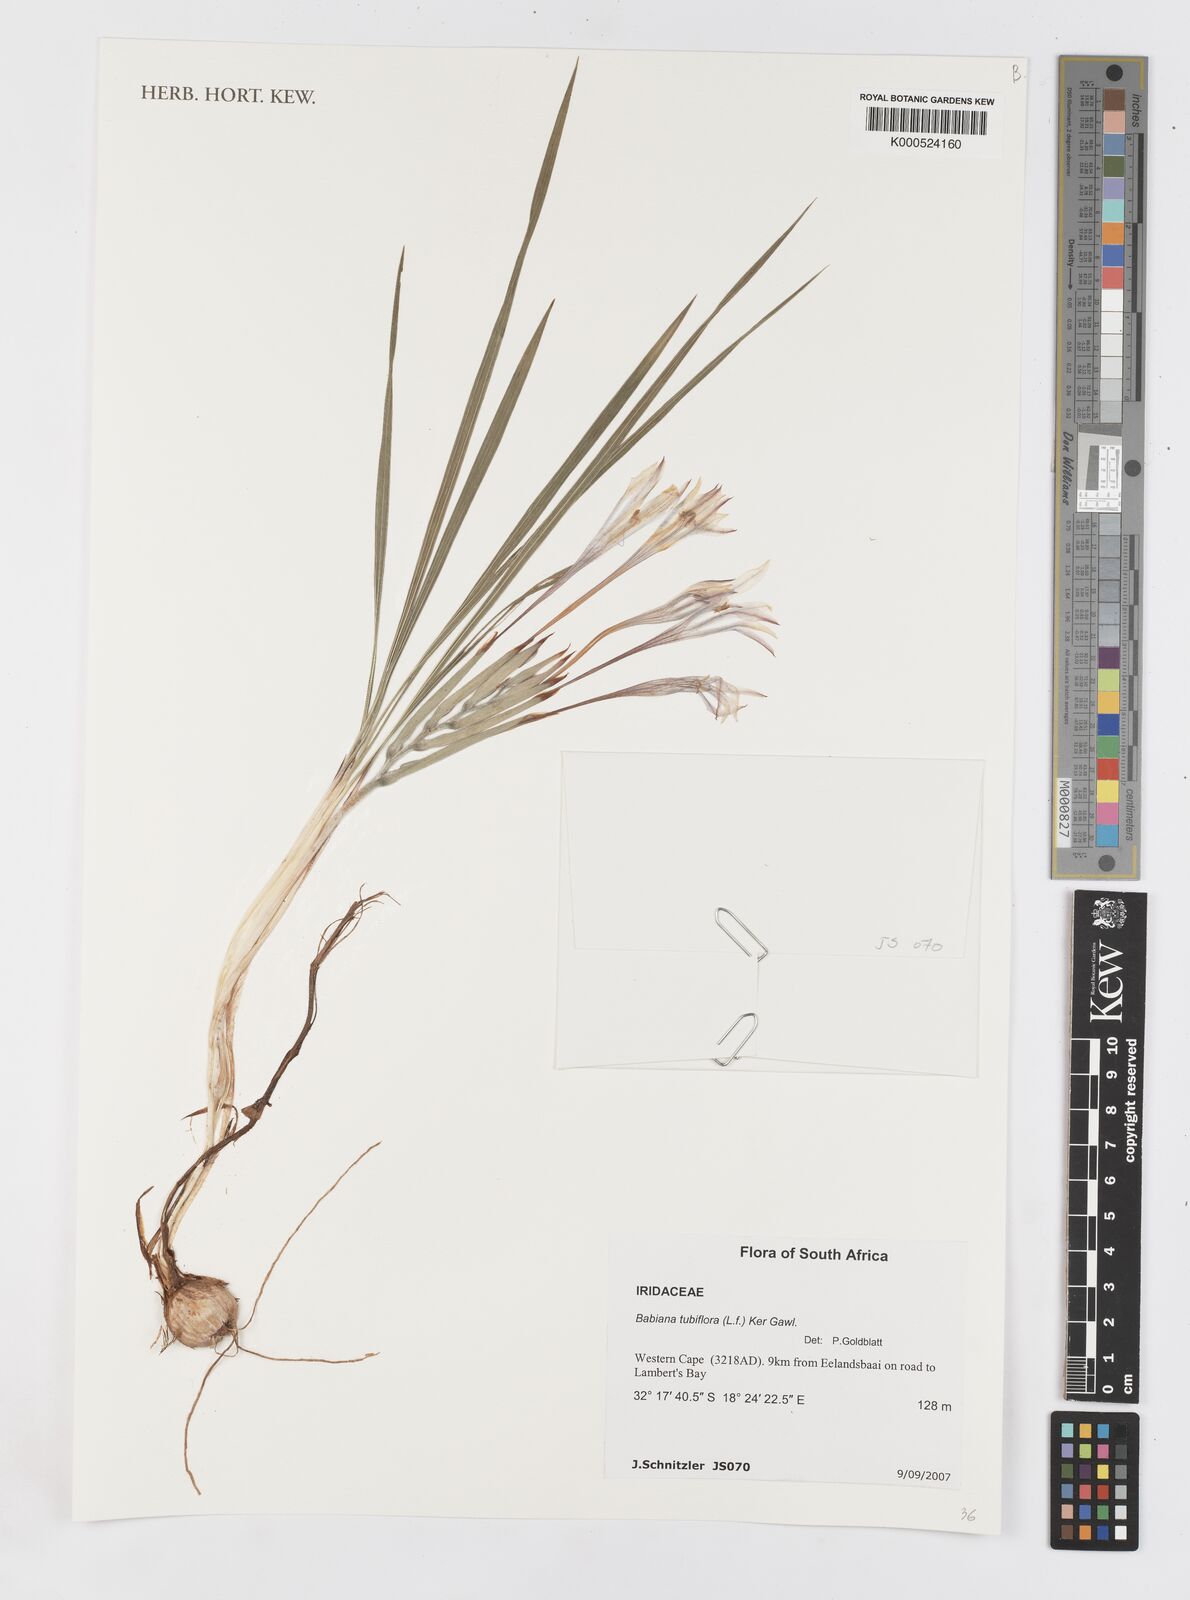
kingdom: Plantae
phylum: Tracheophyta
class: Liliopsida
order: Asparagales
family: Iridaceae
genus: Babiana
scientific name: Babiana tubiflora
